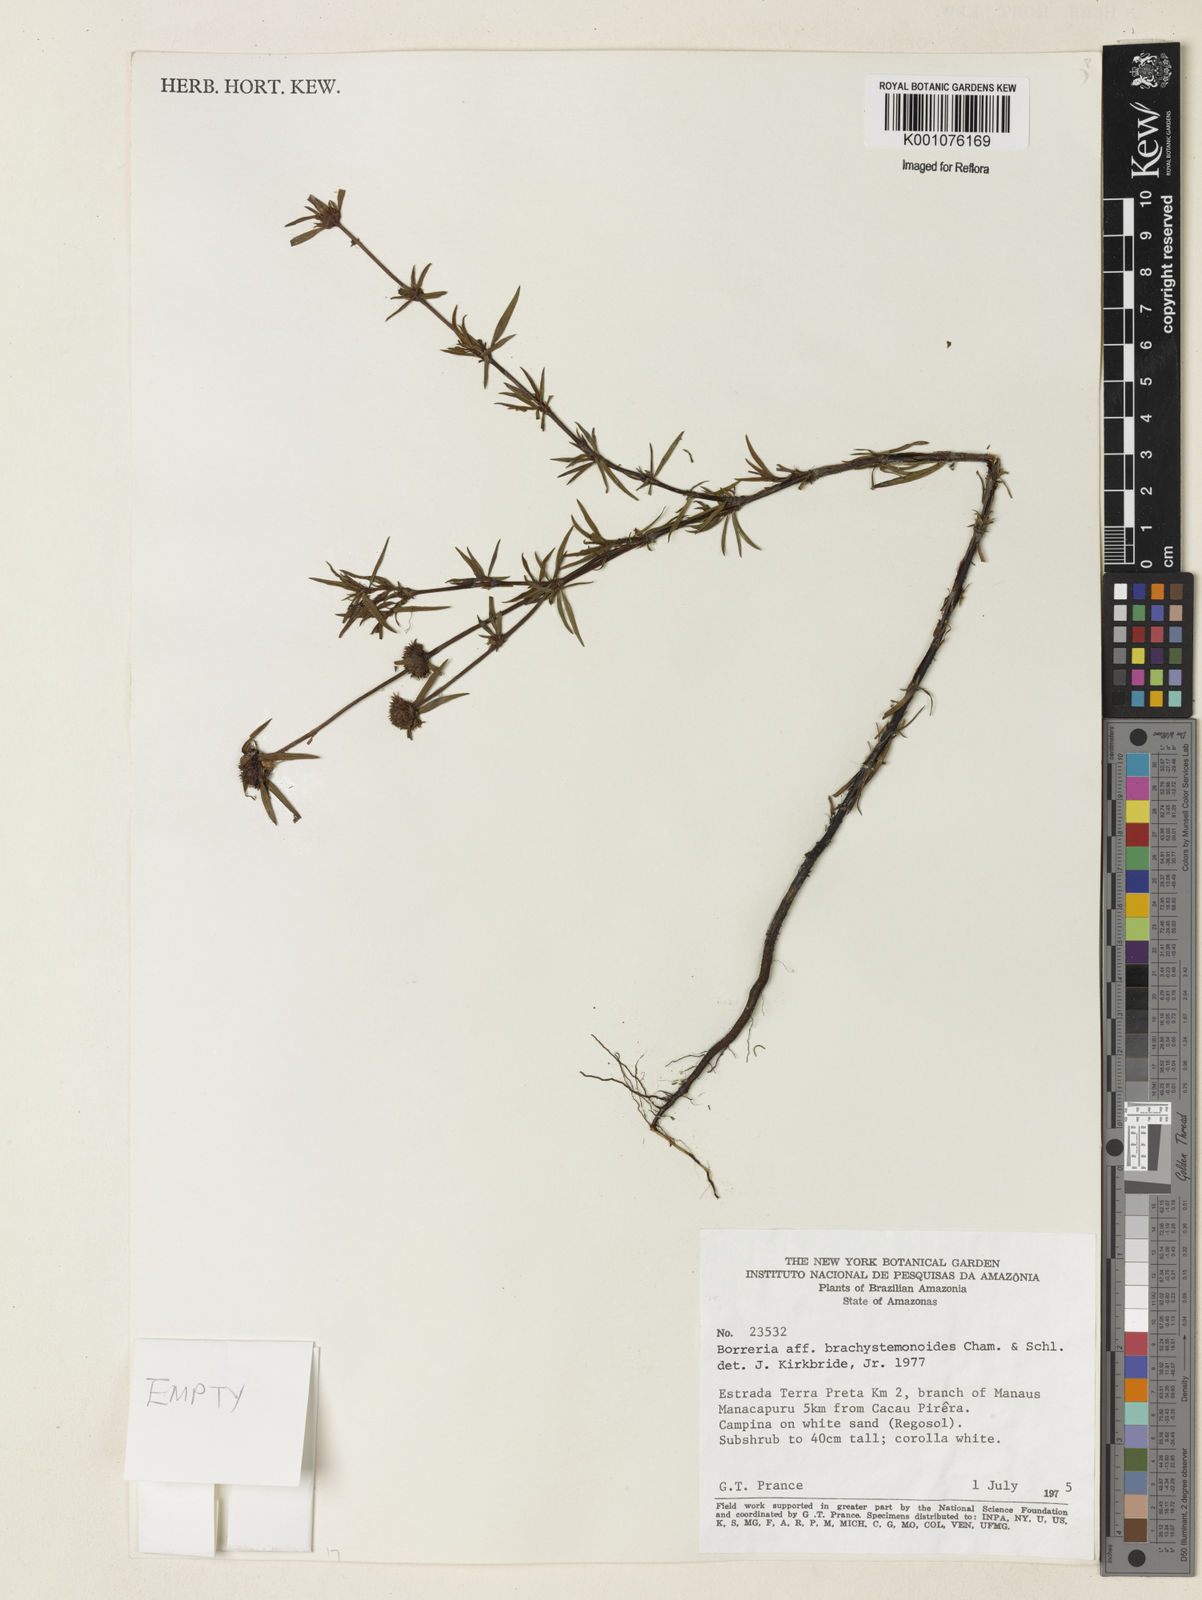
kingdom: Plantae
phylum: Tracheophyta
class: Magnoliopsida
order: Gentianales
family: Rubiaceae
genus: Spermacoce
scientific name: Spermacoce brachystemonoides
